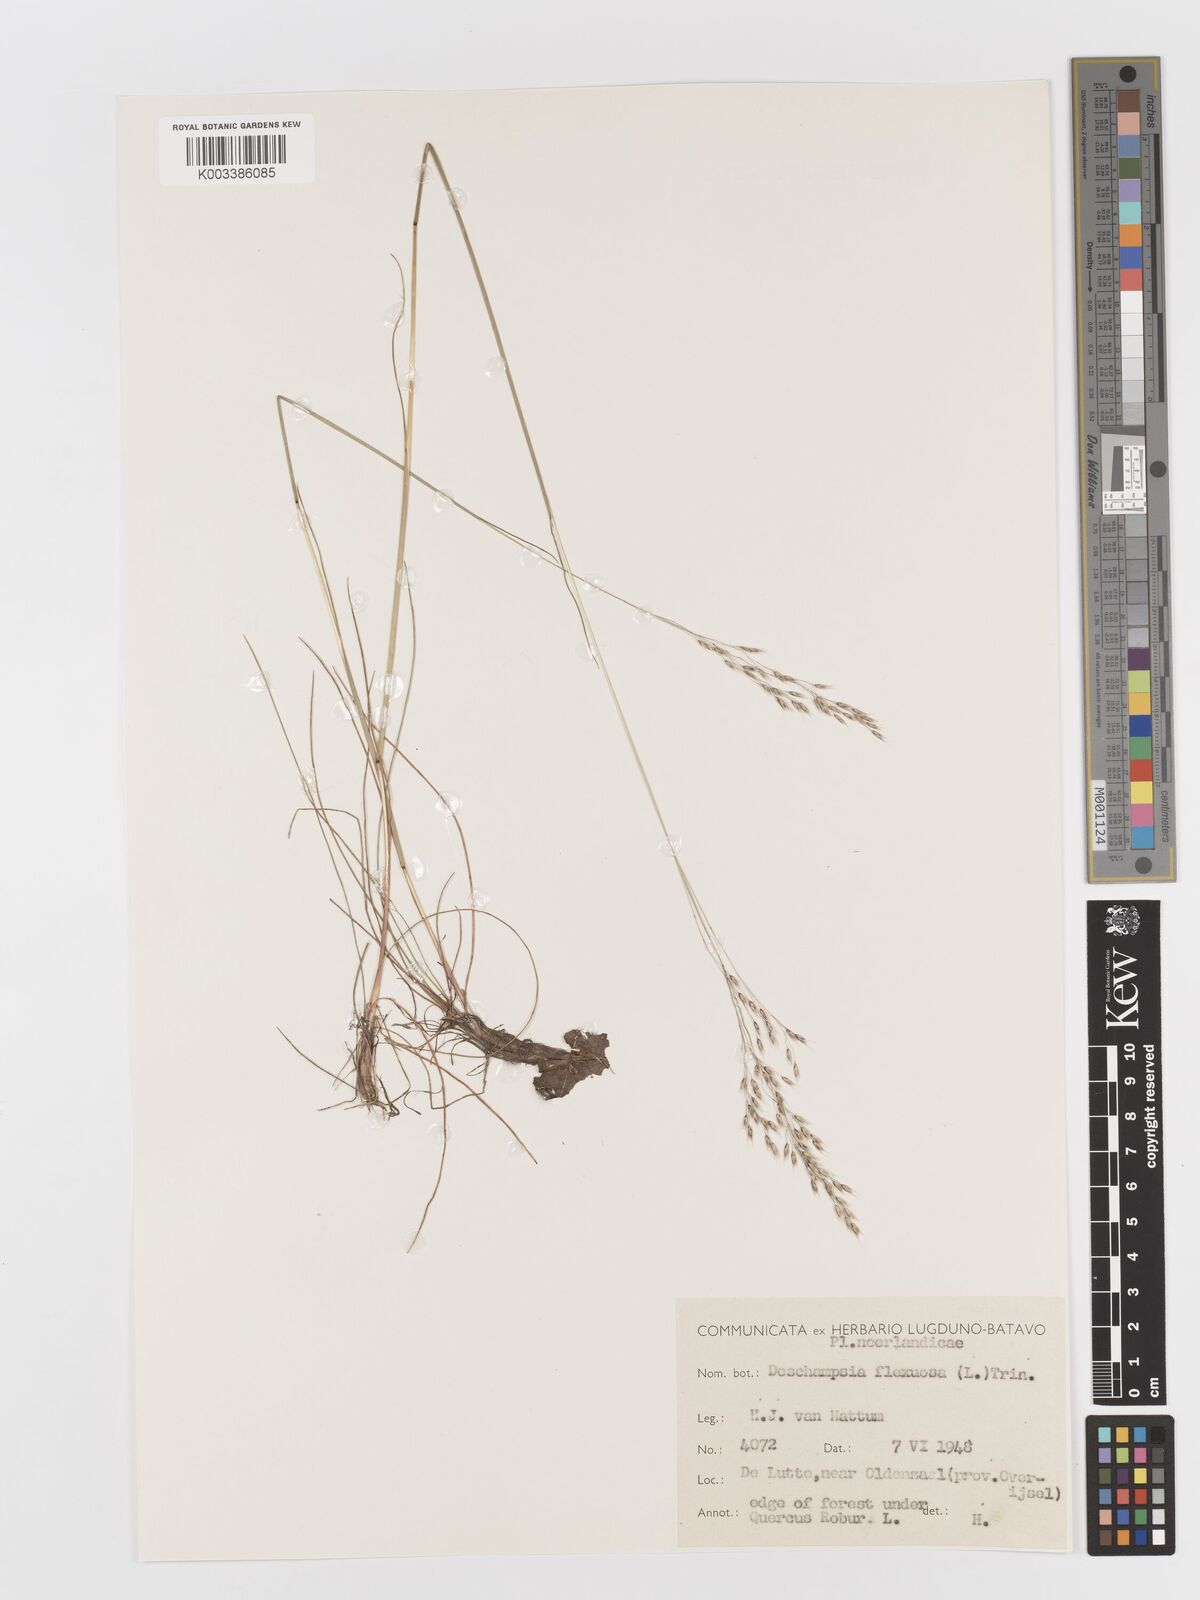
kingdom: Plantae
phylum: Tracheophyta
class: Liliopsida
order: Poales
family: Poaceae
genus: Avenella
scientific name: Avenella flexuosa
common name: Wavy hairgrass
